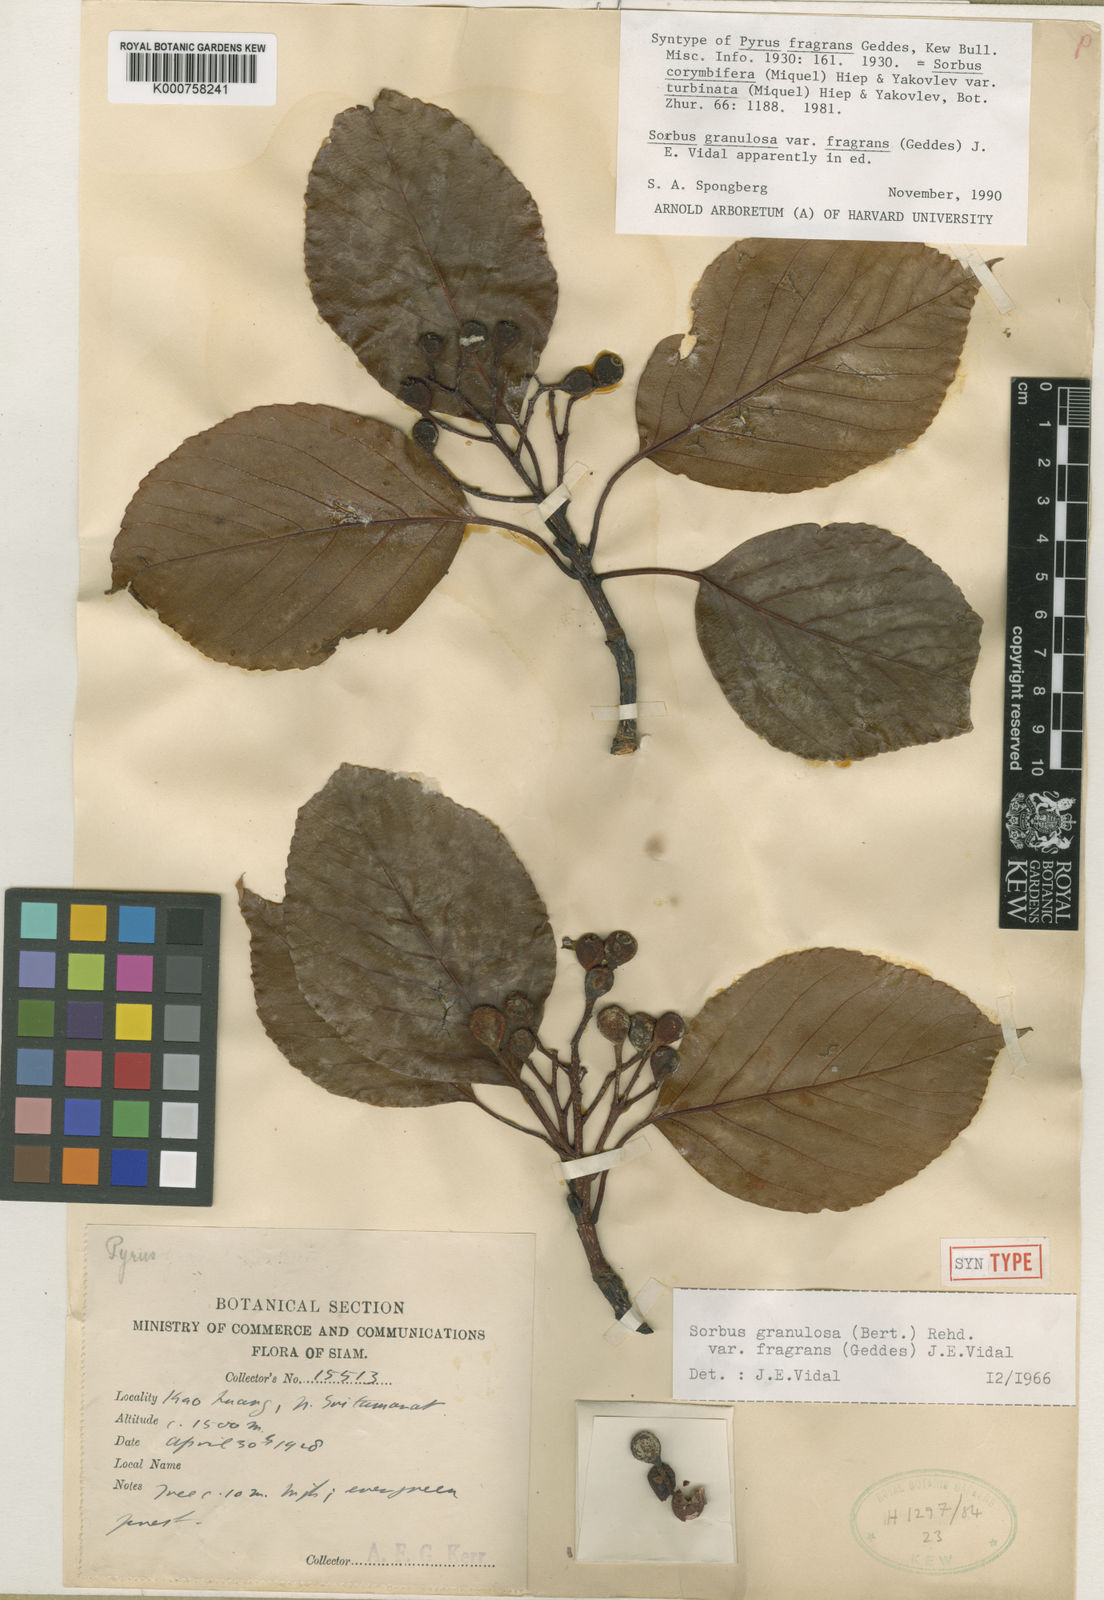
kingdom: Plantae
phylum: Tracheophyta
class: Magnoliopsida
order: Rosales
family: Rosaceae
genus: Sorbus
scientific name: Sorbus
